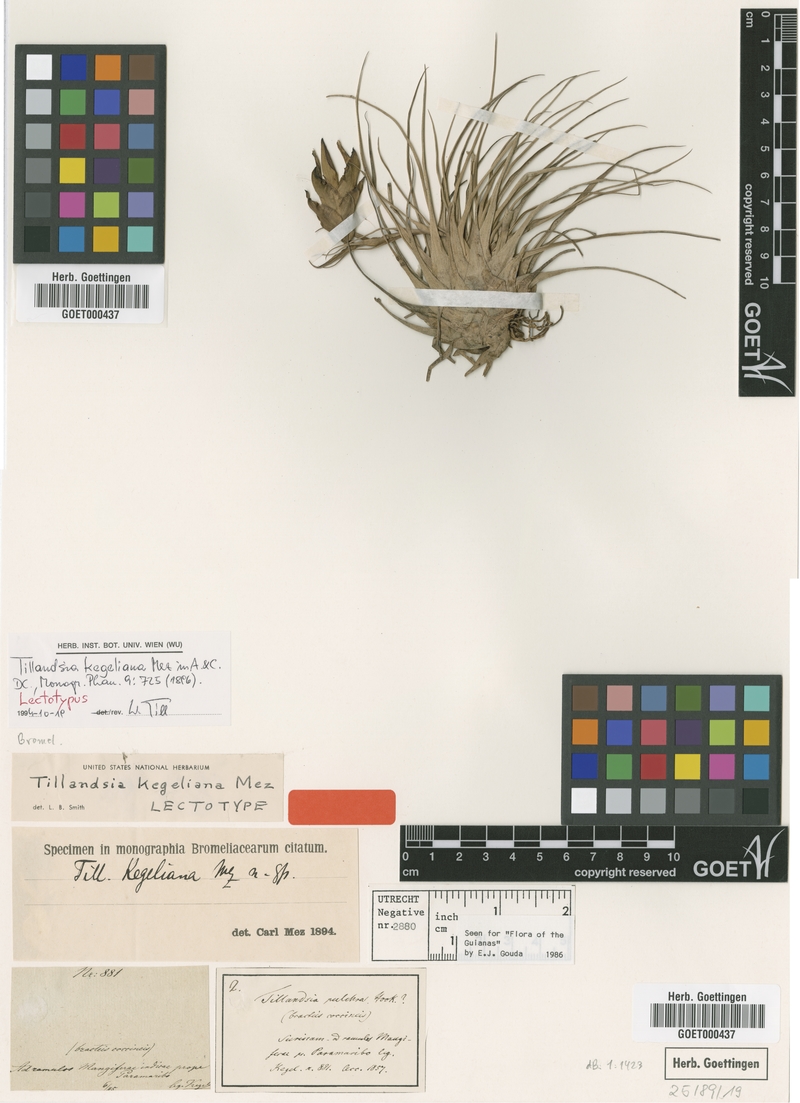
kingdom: Plantae
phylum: Tracheophyta
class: Liliopsida
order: Poales
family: Bromeliaceae
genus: Tillandsia
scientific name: Tillandsia kegeliana
